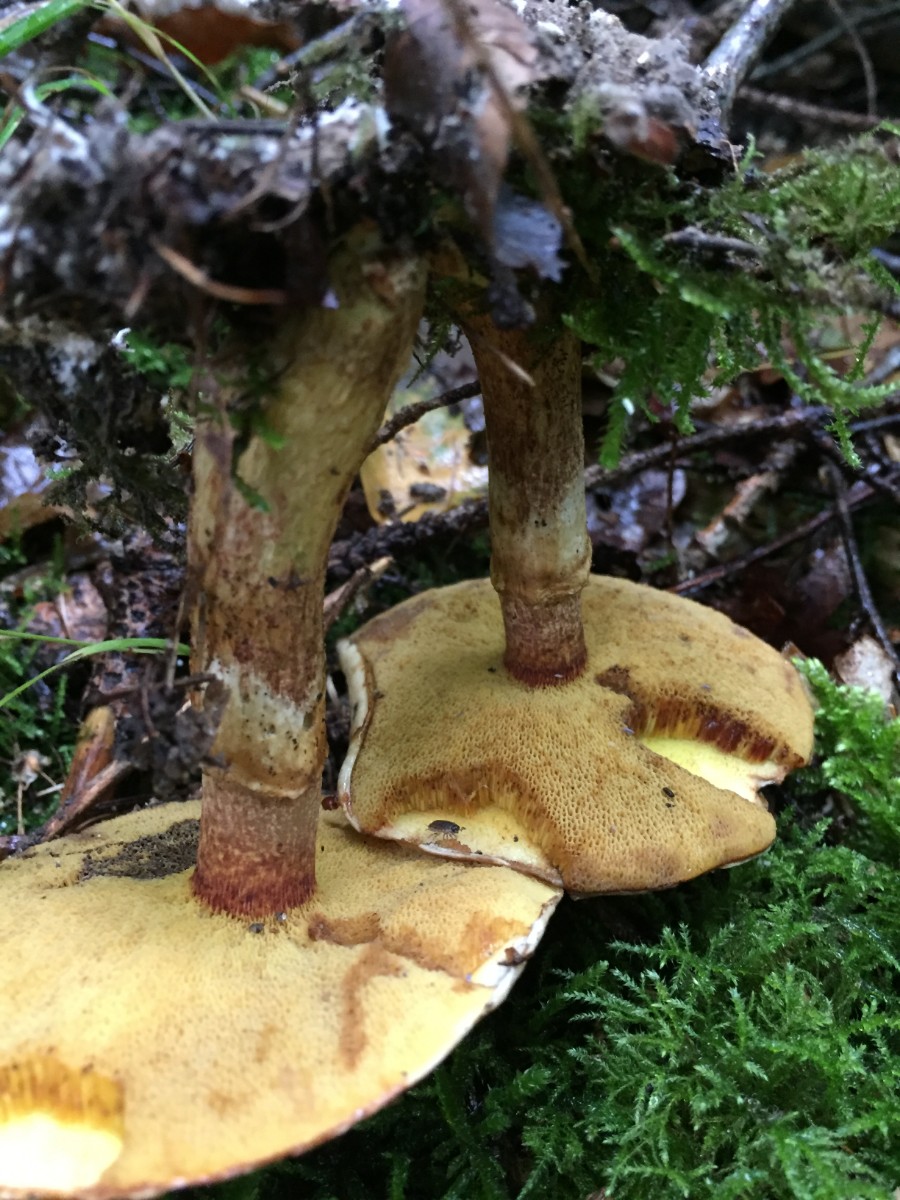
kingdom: Fungi
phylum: Basidiomycota
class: Agaricomycetes
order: Boletales
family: Suillaceae
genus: Suillus
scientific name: Suillus grevillei
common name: lærke-slimrørhat
